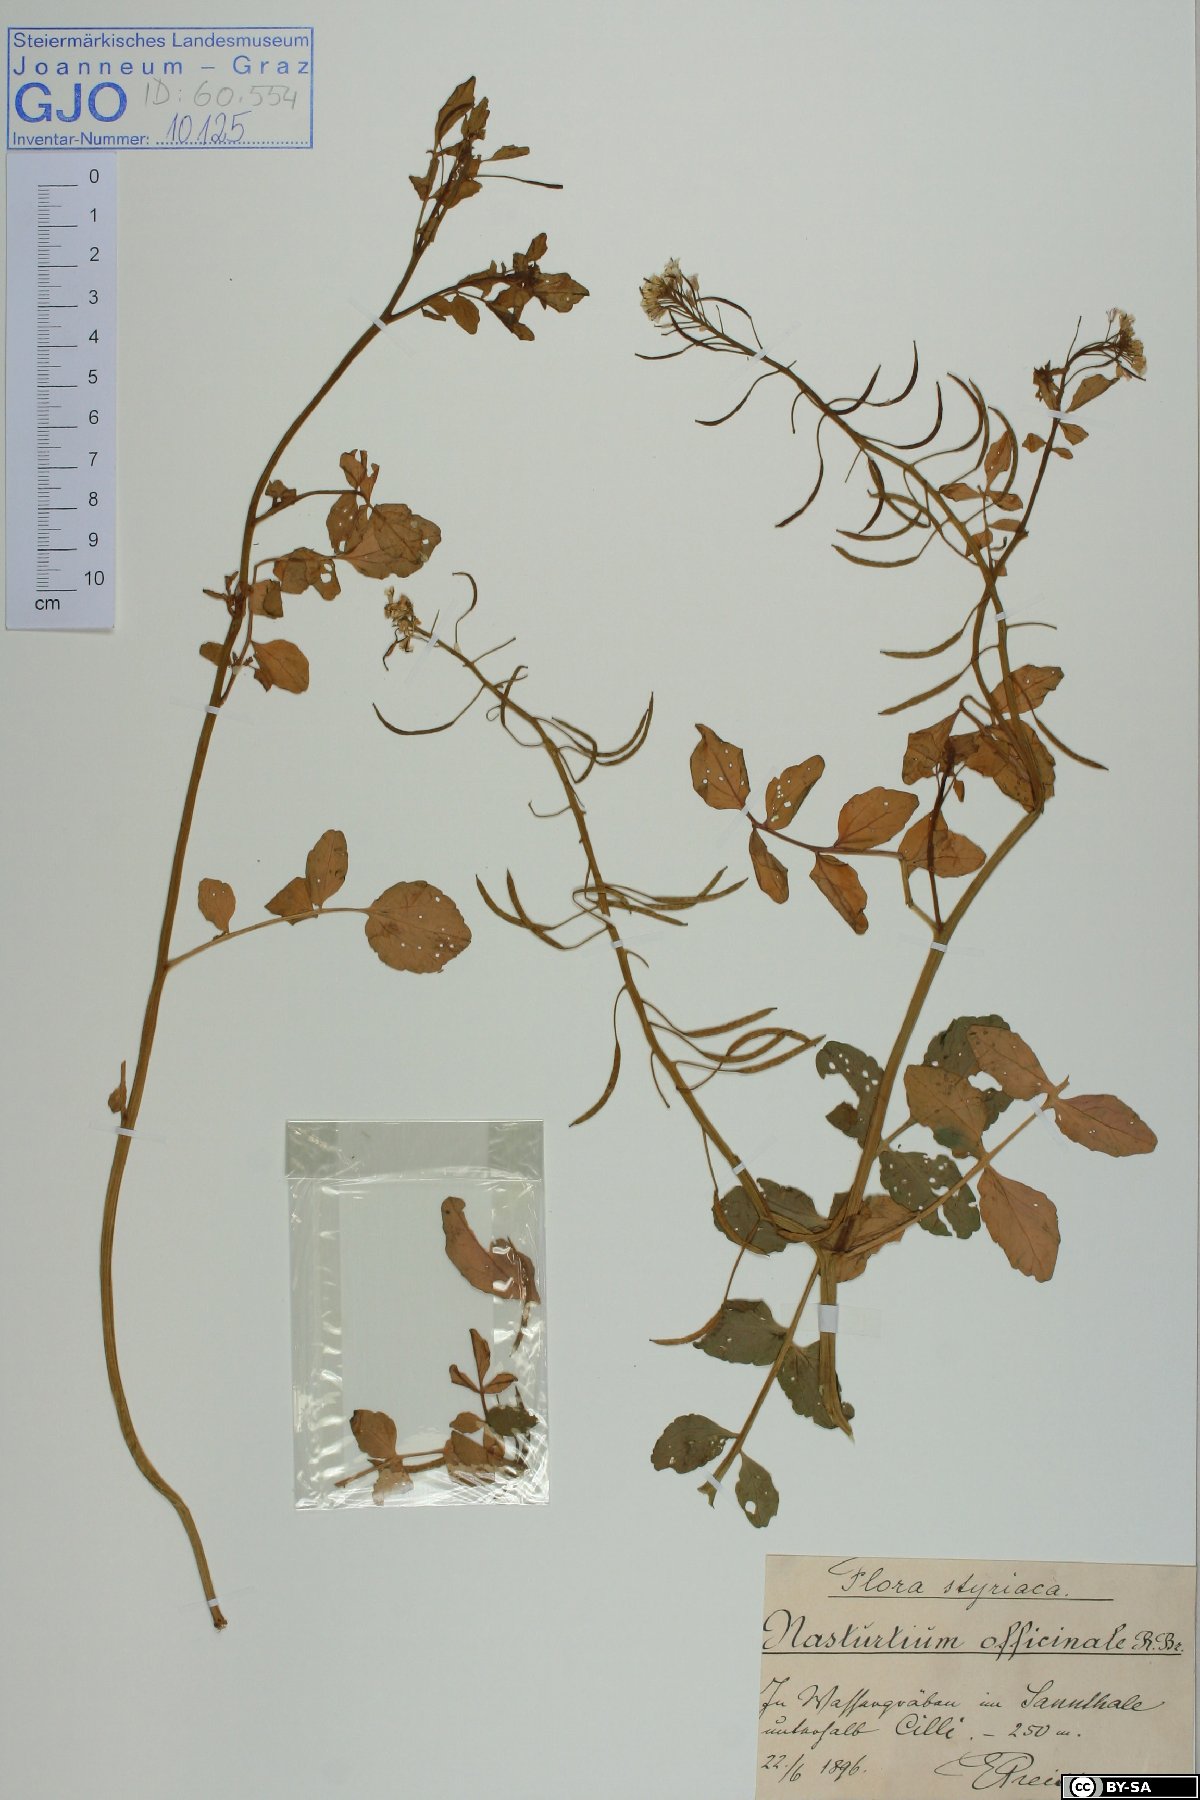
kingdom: Plantae
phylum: Tracheophyta
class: Magnoliopsida
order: Brassicales
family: Brassicaceae
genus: Nasturtium
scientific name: Nasturtium officinale
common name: Watercress
